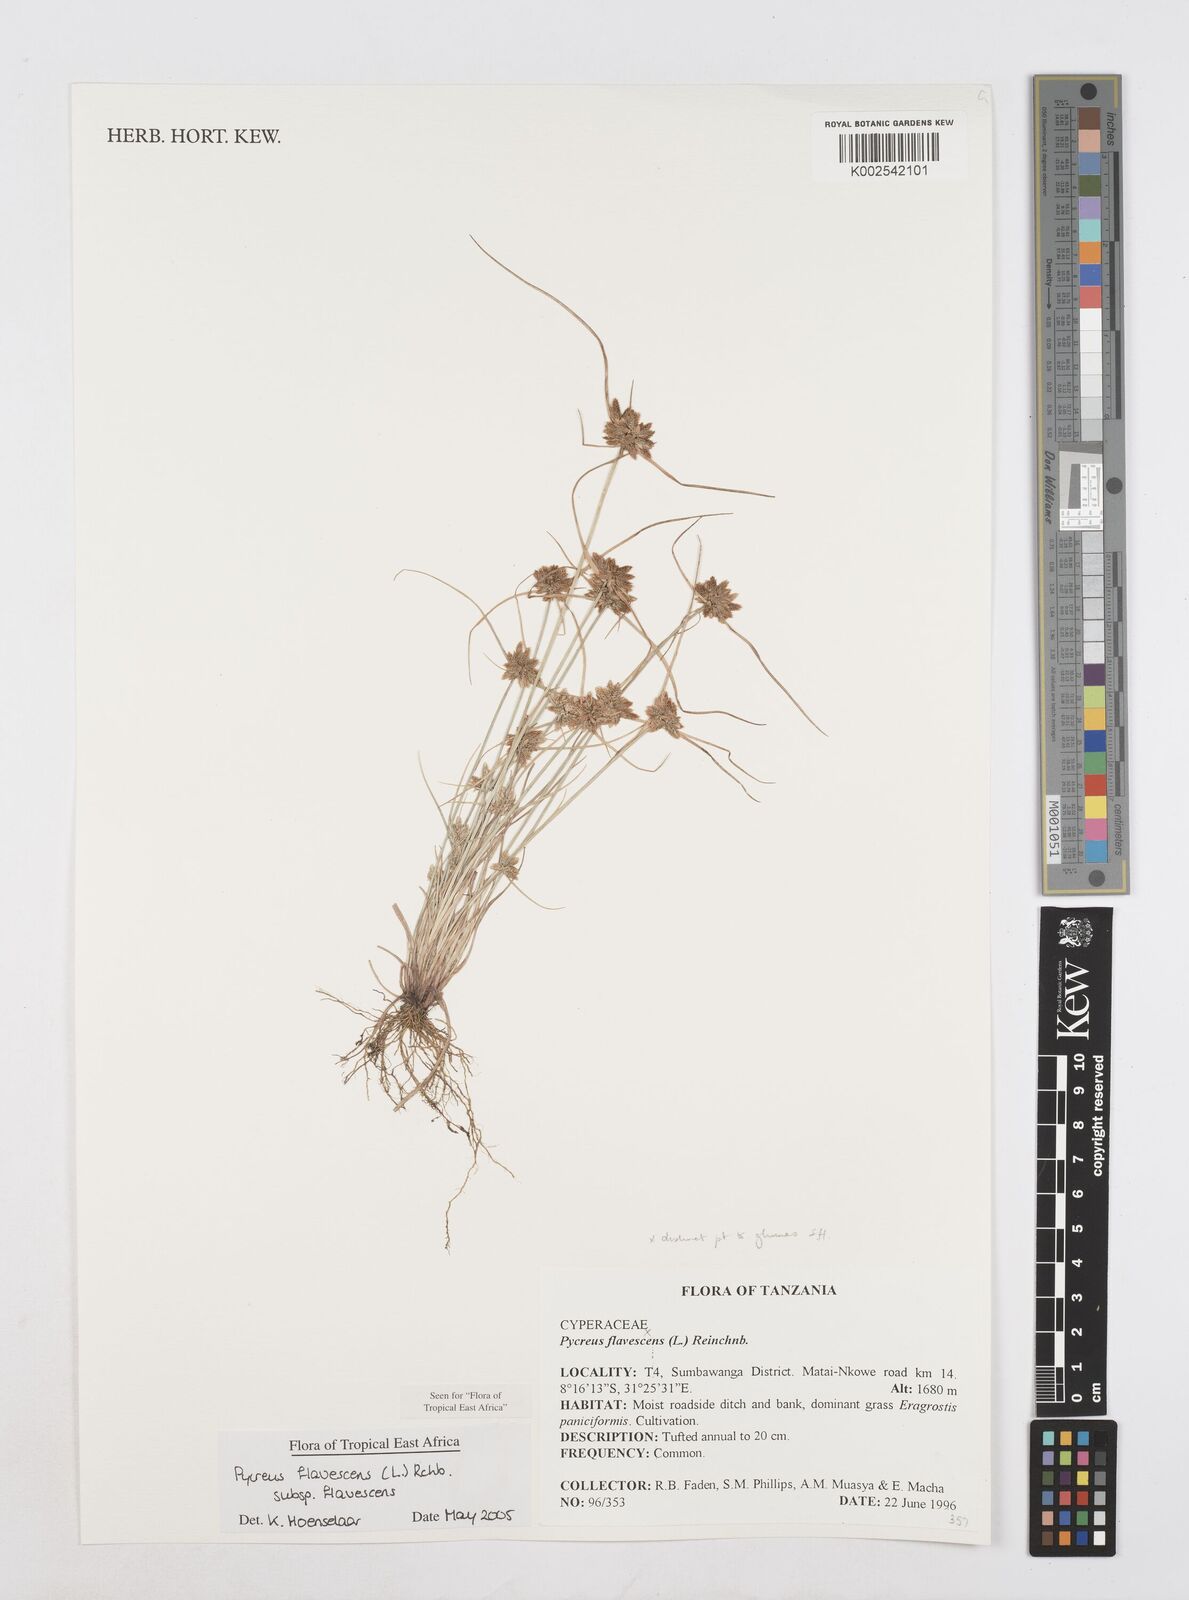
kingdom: Plantae
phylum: Tracheophyta
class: Liliopsida
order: Poales
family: Cyperaceae
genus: Cyperus
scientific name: Cyperus flavescens
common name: Yellow galingale
